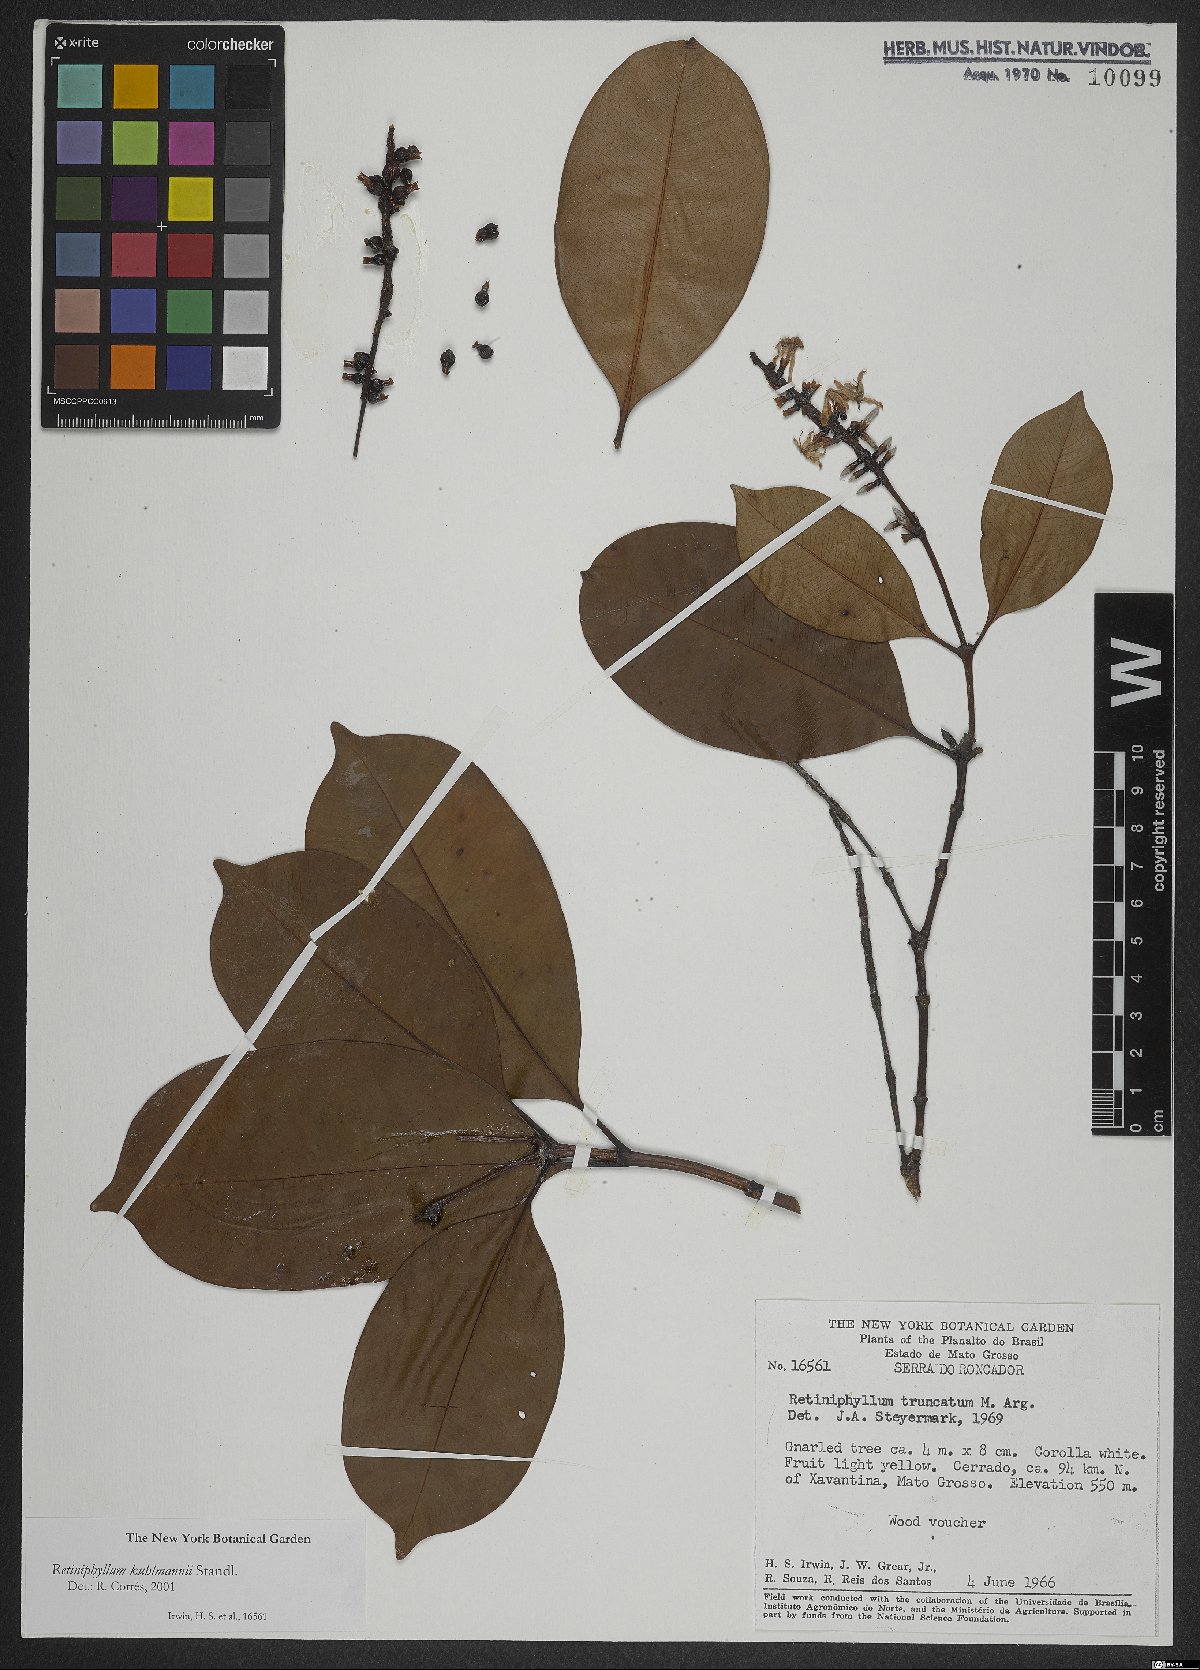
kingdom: Plantae
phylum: Tracheophyta
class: Magnoliopsida
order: Gentianales
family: Rubiaceae
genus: Retiniphyllum
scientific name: Retiniphyllum kuhlmannii
